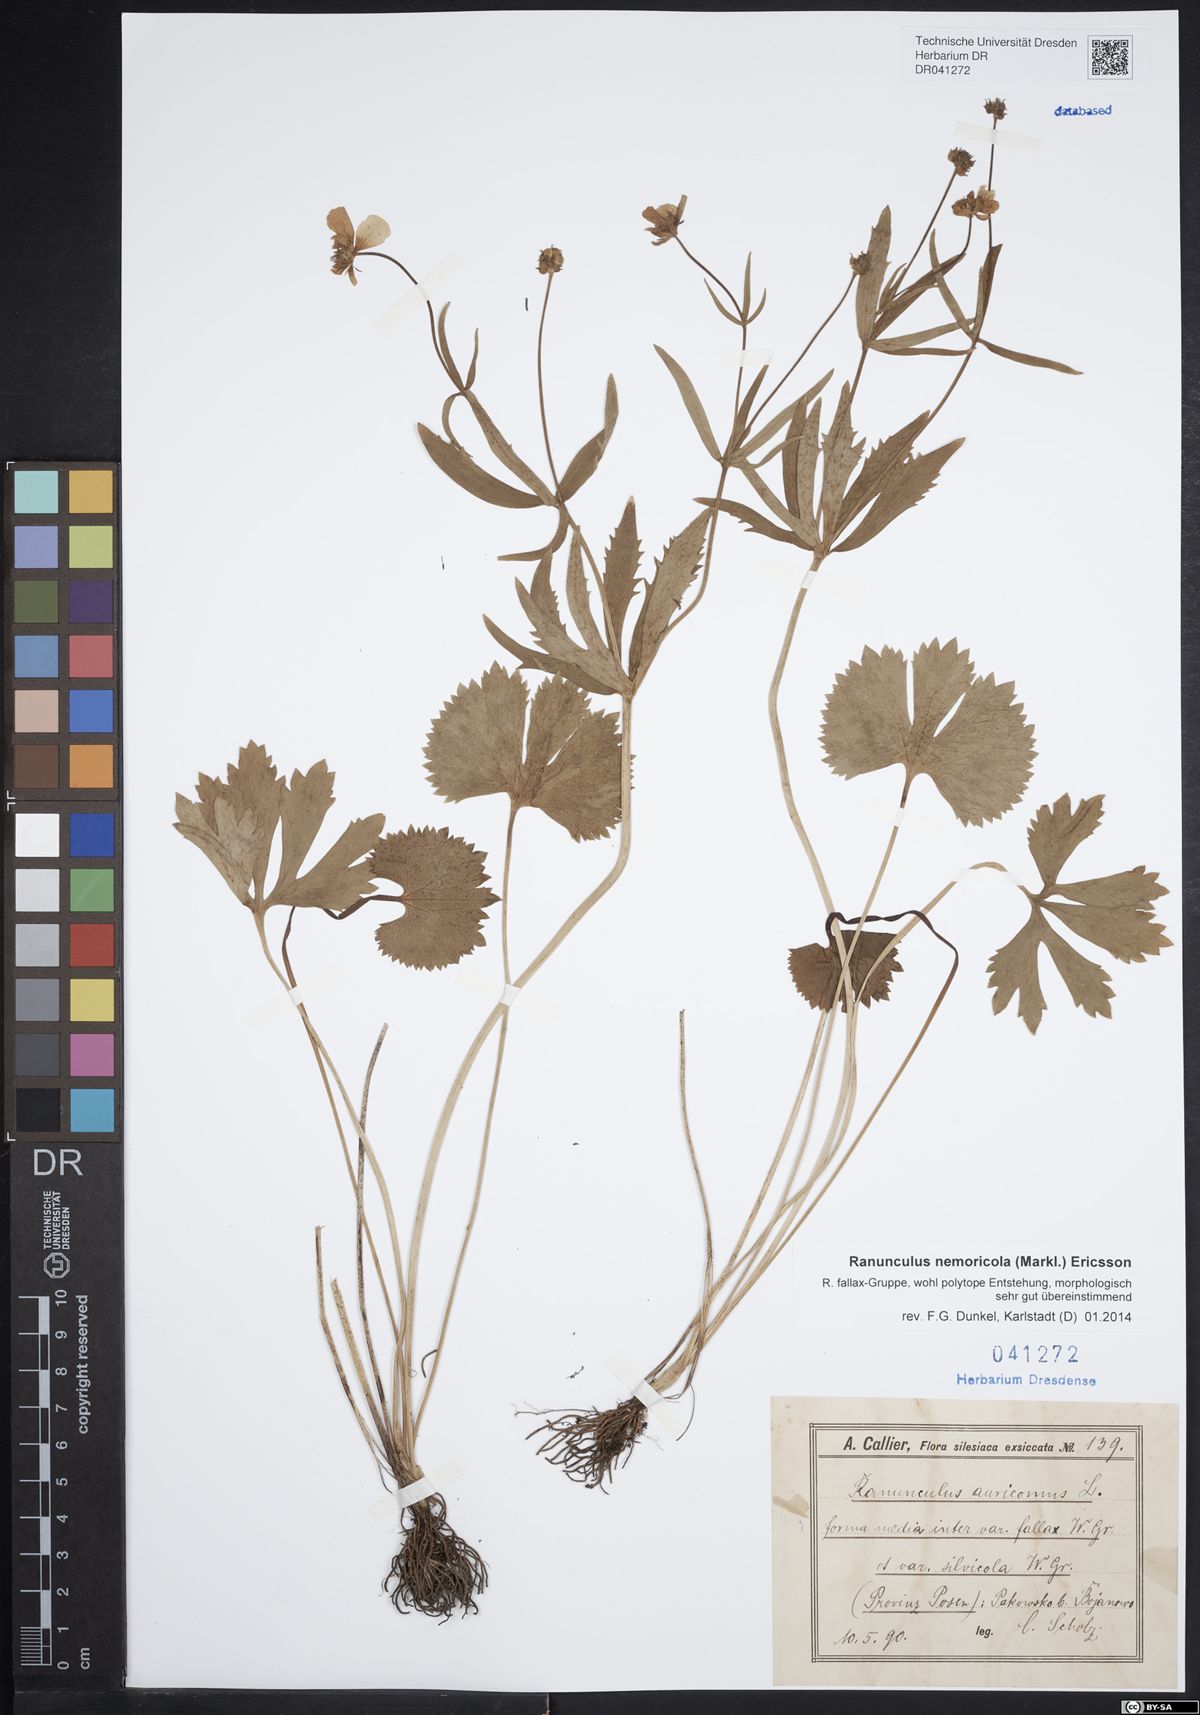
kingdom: Plantae
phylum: Tracheophyta
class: Magnoliopsida
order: Ranunculales
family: Ranunculaceae
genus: Ranunculus
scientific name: Ranunculus nemoricola
